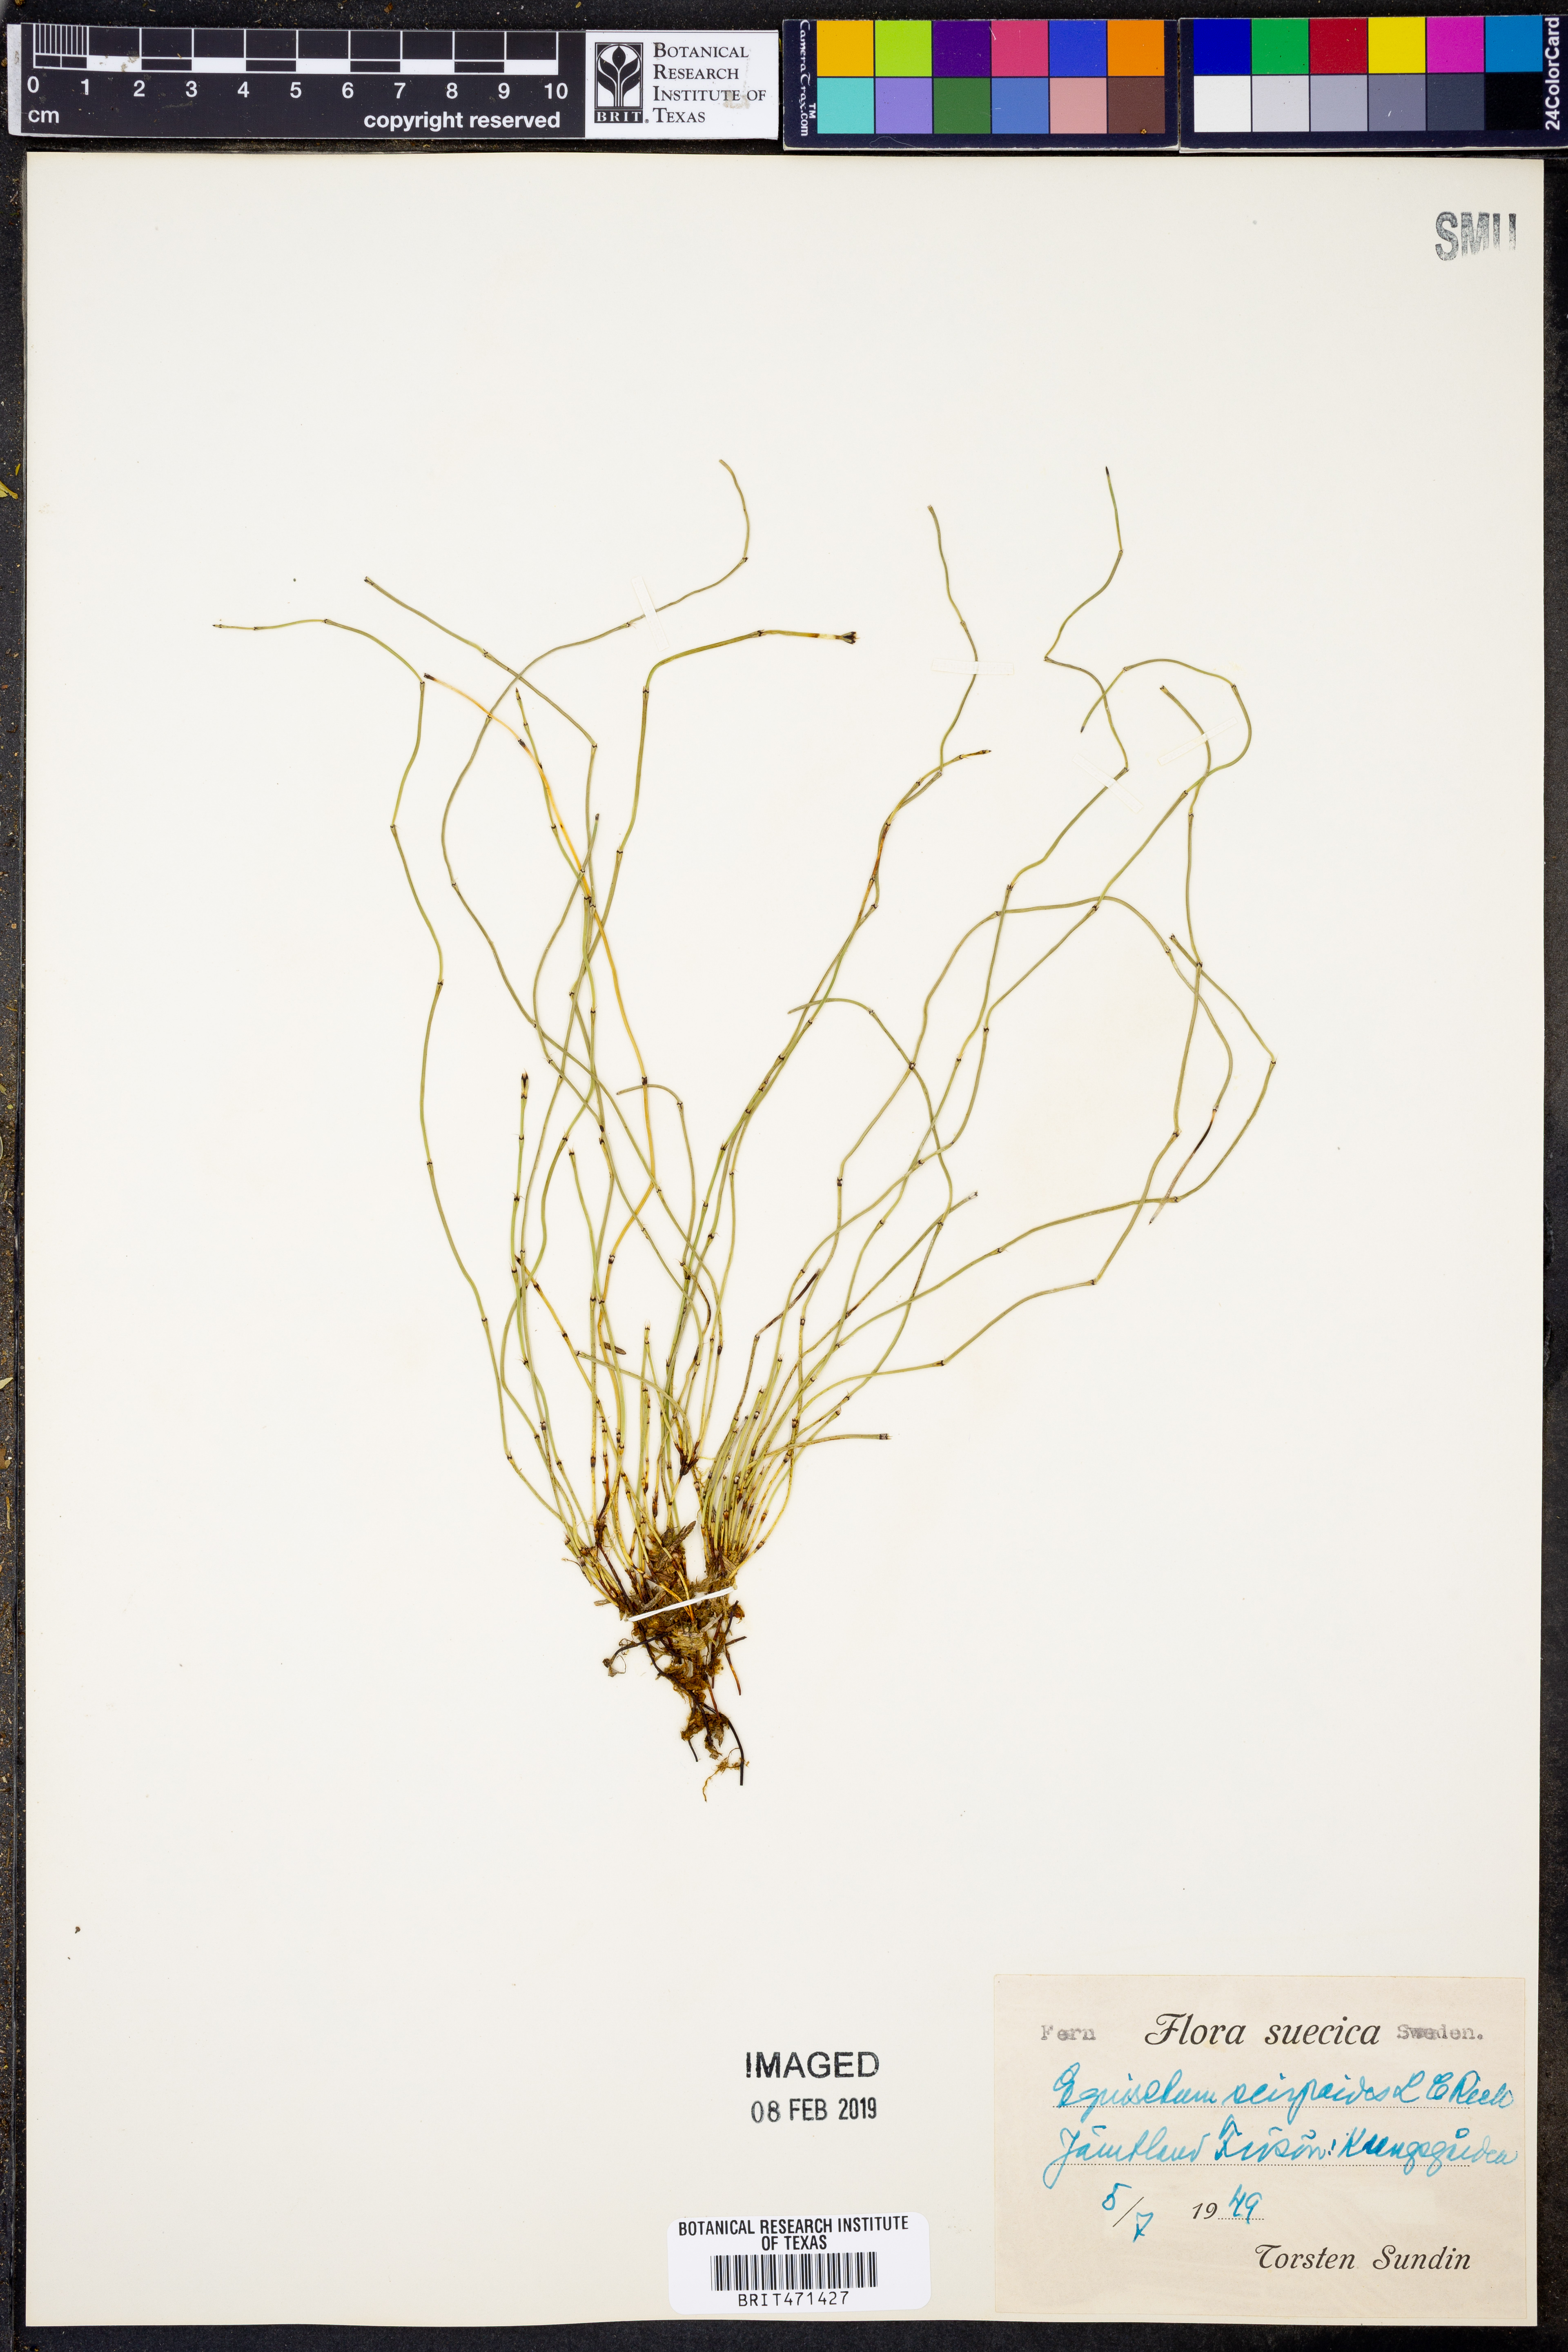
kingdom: Plantae
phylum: Tracheophyta
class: Polypodiopsida
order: Equisetales
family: Equisetaceae
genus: Equisetum
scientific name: Equisetum scirpoides
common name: Delicate horsetail
